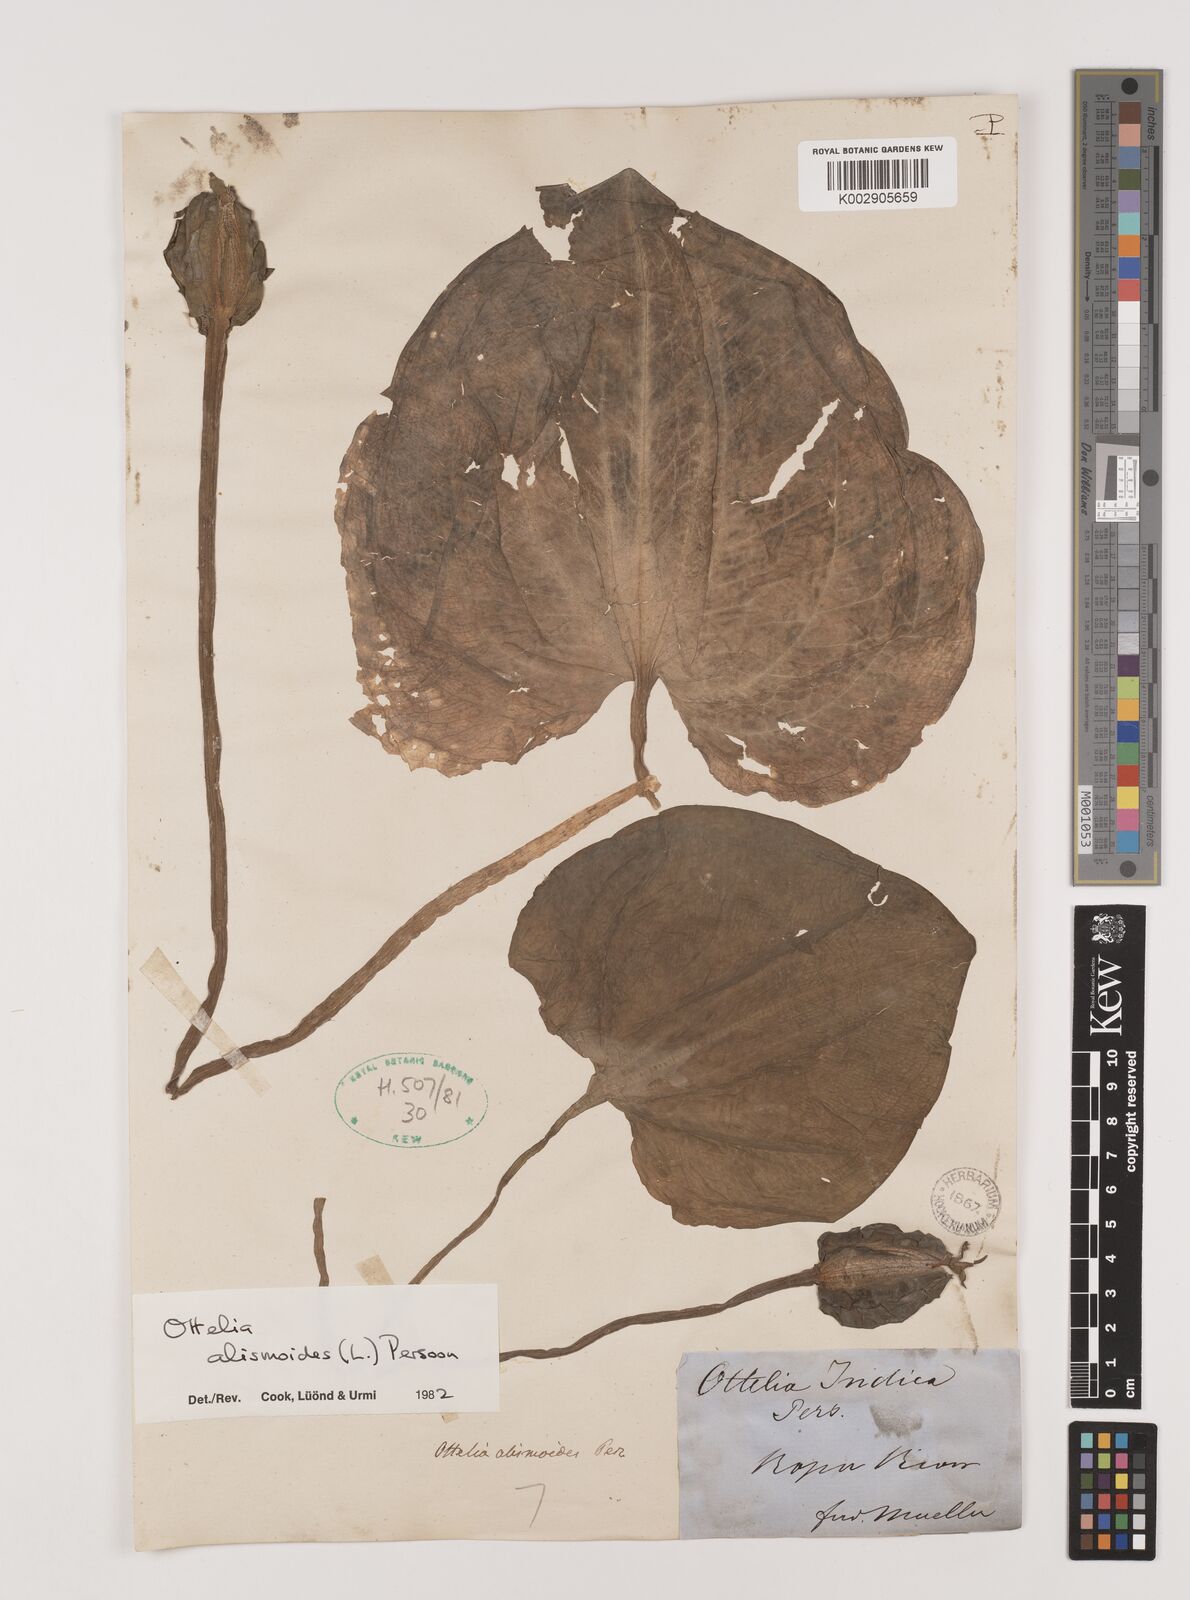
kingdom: Plantae
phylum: Tracheophyta
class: Liliopsida
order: Alismatales
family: Hydrocharitaceae
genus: Ottelia
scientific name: Ottelia alismoides
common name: Duck-lettuce
